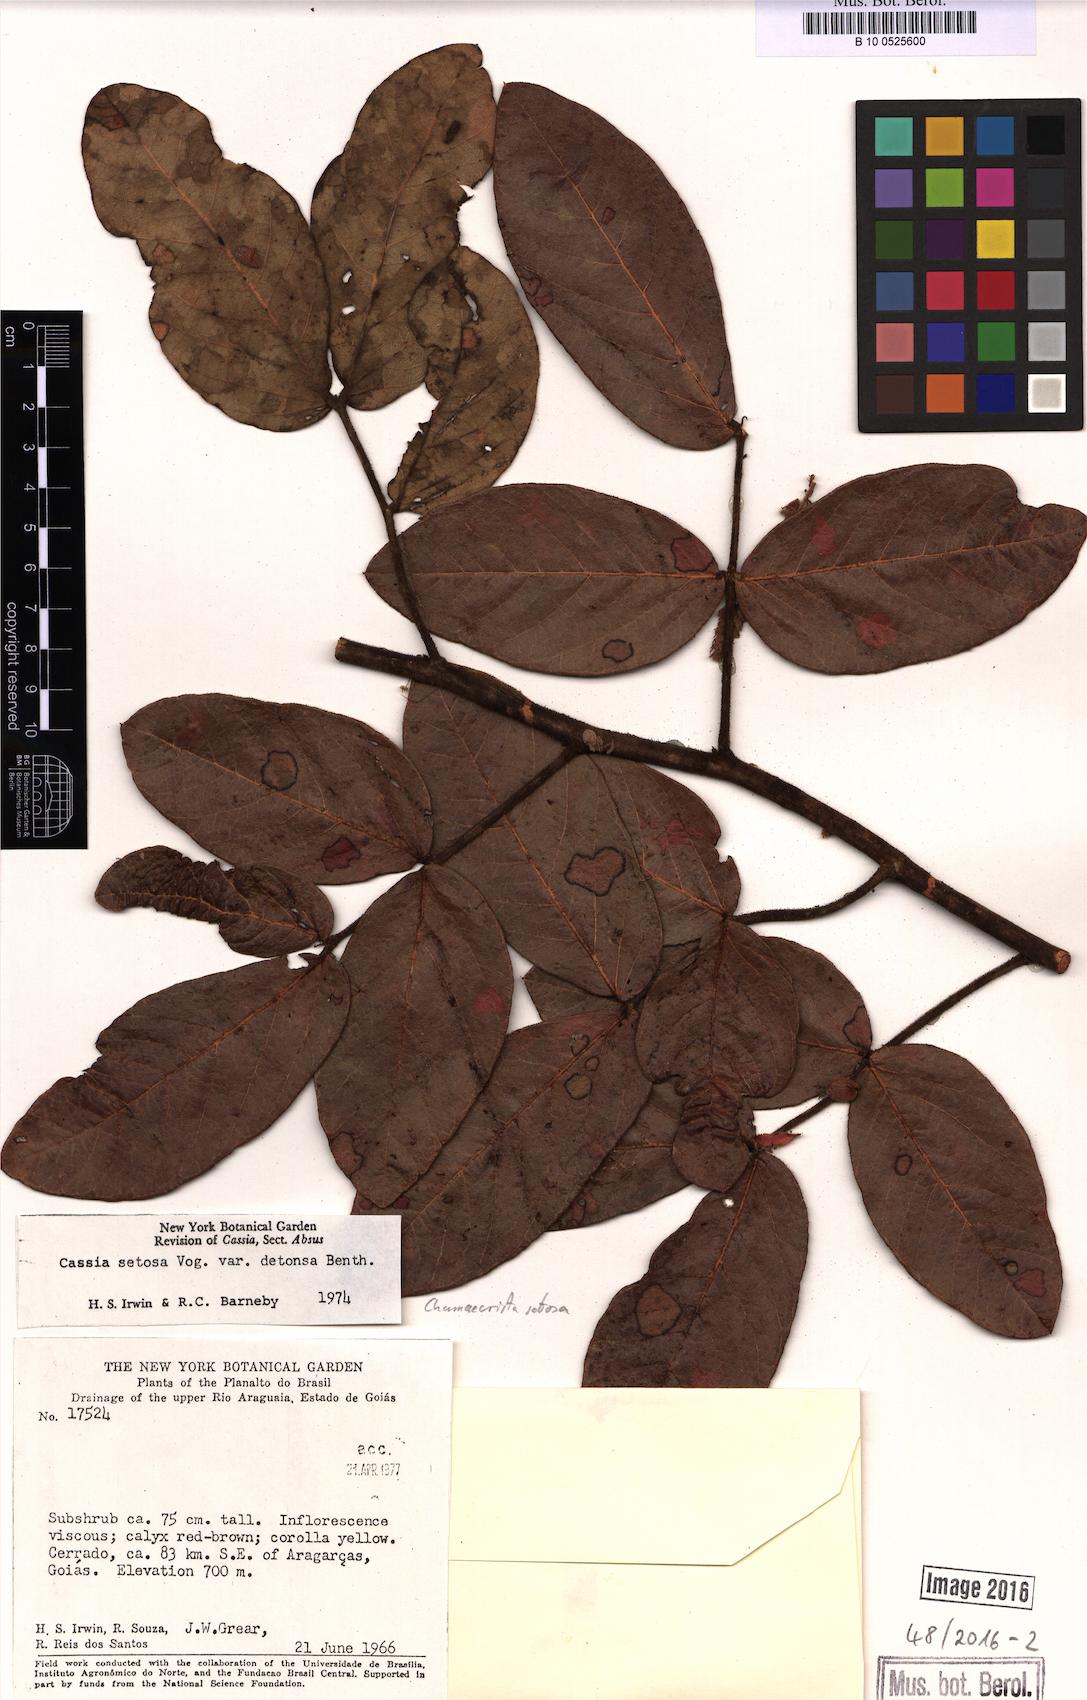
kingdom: Plantae
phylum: Tracheophyta
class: Magnoliopsida
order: Fabales
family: Fabaceae
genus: Chamaecrista
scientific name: Chamaecrista setosa
